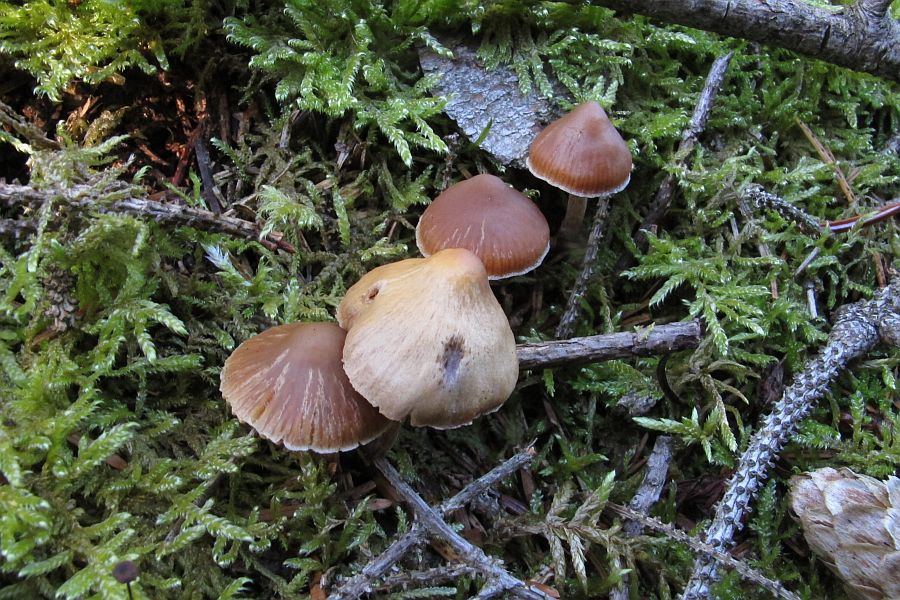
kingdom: Fungi
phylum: Basidiomycota
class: Agaricomycetes
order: Agaricales
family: Cortinariaceae
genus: Cortinarius
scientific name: Cortinarius acutus
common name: spids slørhat
